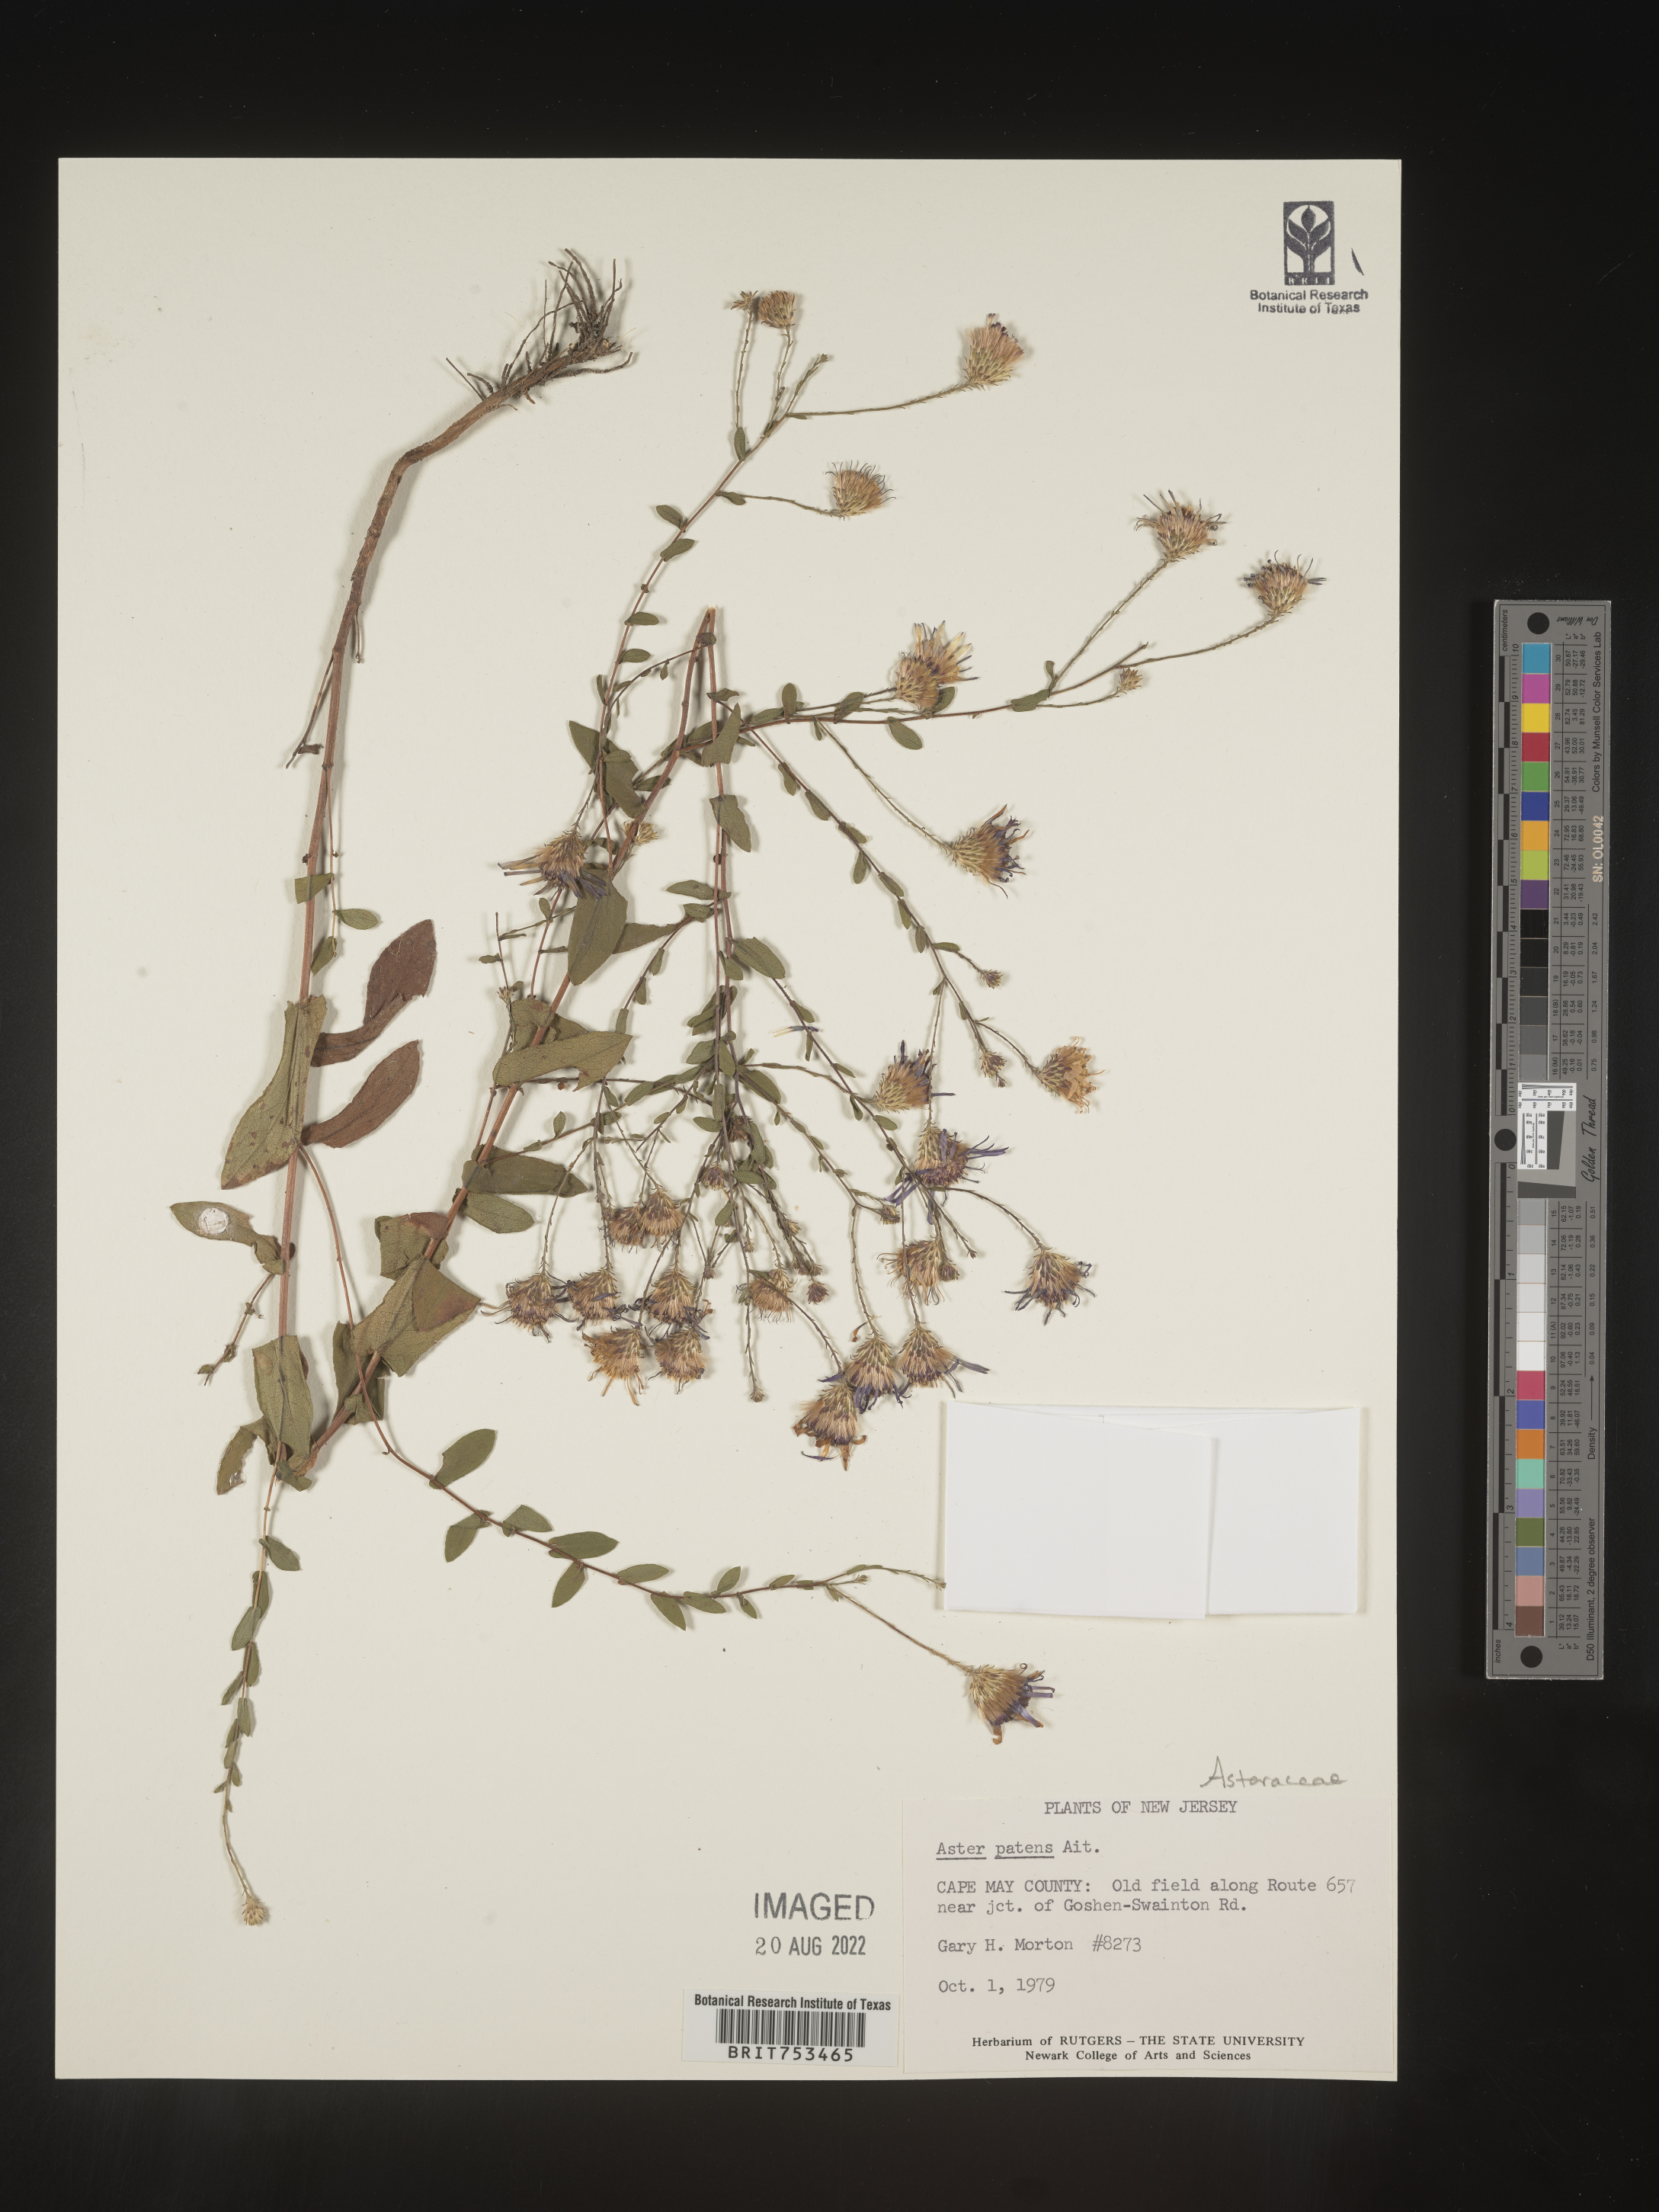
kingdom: Plantae
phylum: Tracheophyta
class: Magnoliopsida
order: Asterales
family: Asteraceae
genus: Symphyotrichum
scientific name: Symphyotrichum patens
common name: Late purple aster
